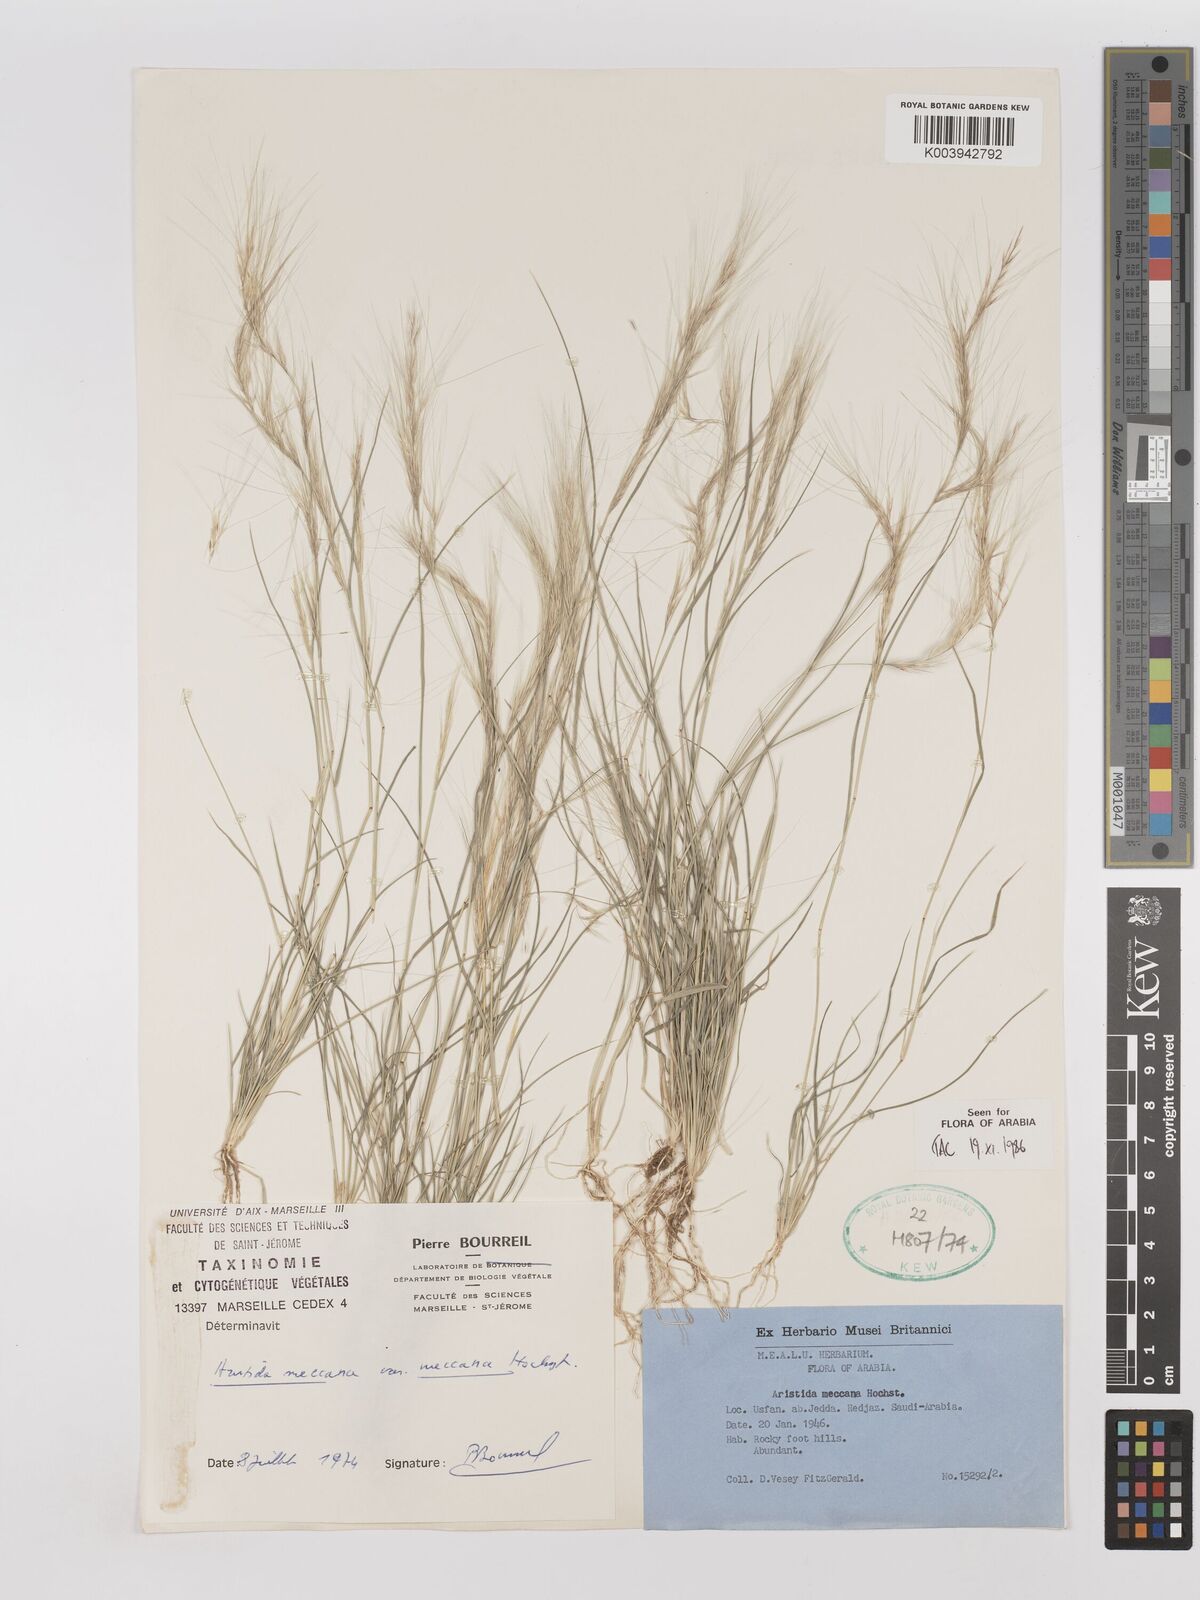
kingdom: Plantae
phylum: Tracheophyta
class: Liliopsida
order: Poales
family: Poaceae
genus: Aristida
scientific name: Aristida mutabilis
